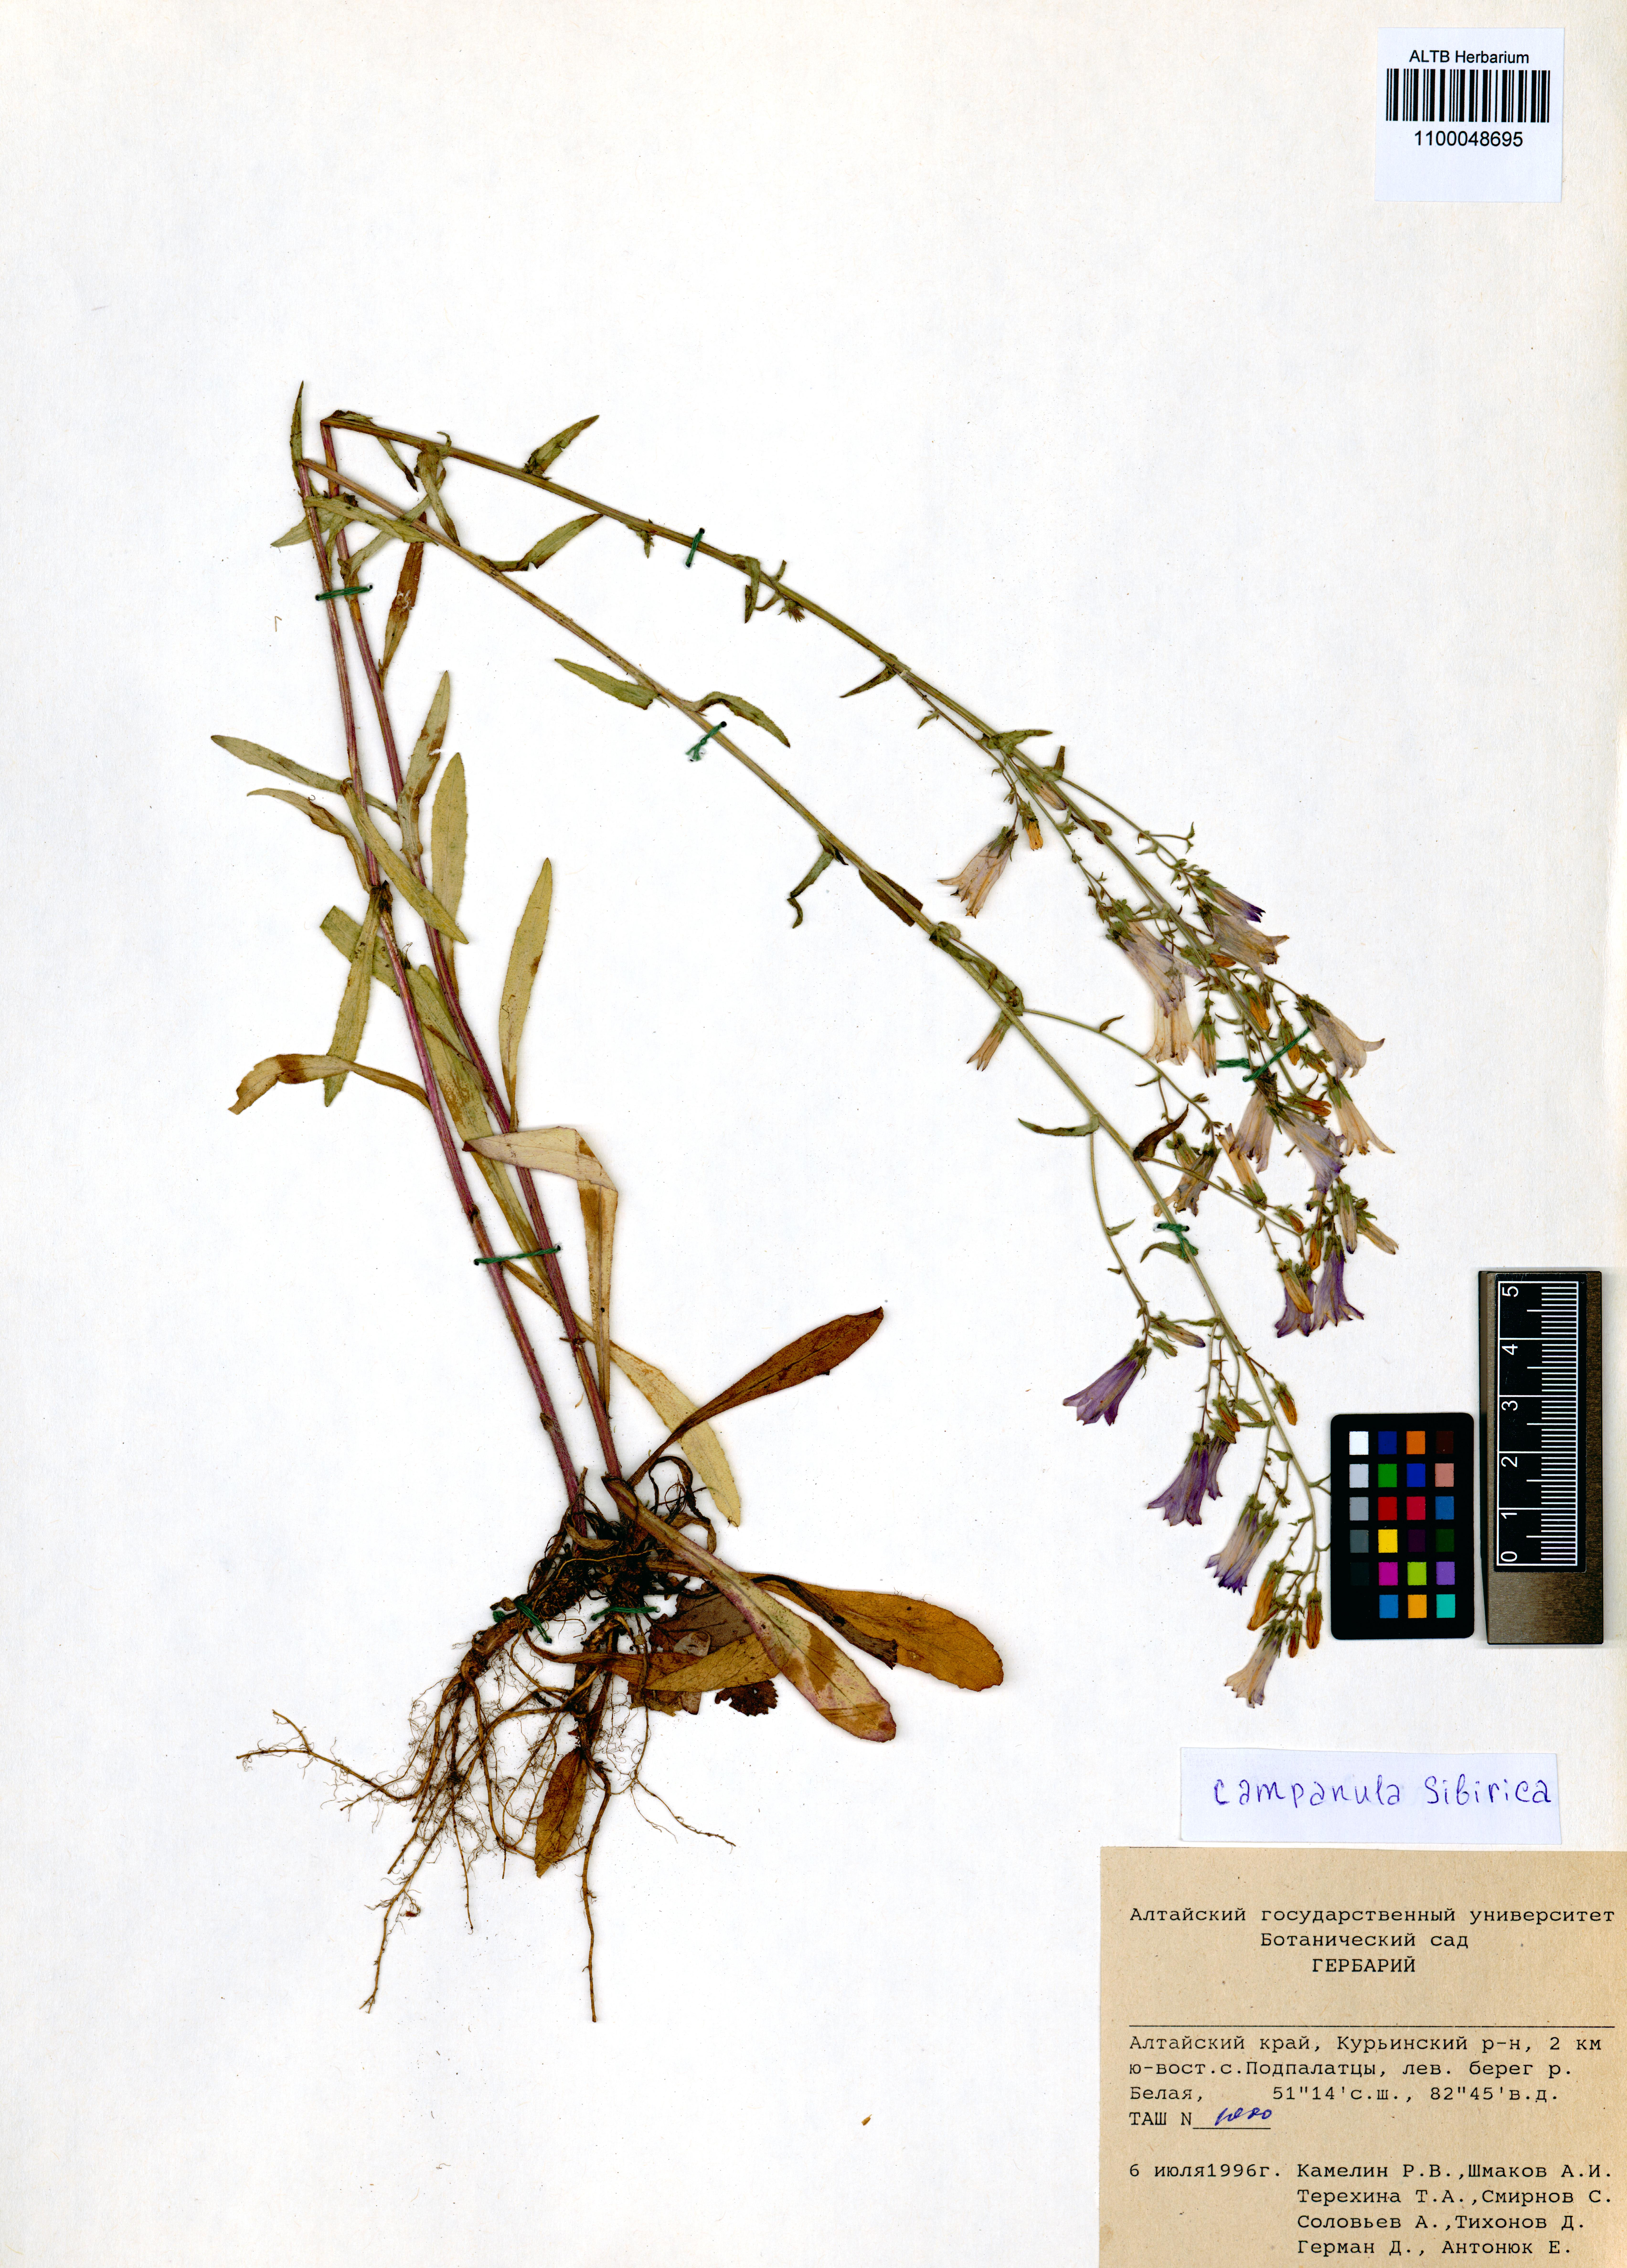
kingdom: Plantae
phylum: Tracheophyta
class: Magnoliopsida
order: Asterales
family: Campanulaceae
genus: Campanula
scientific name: Campanula sibirica
